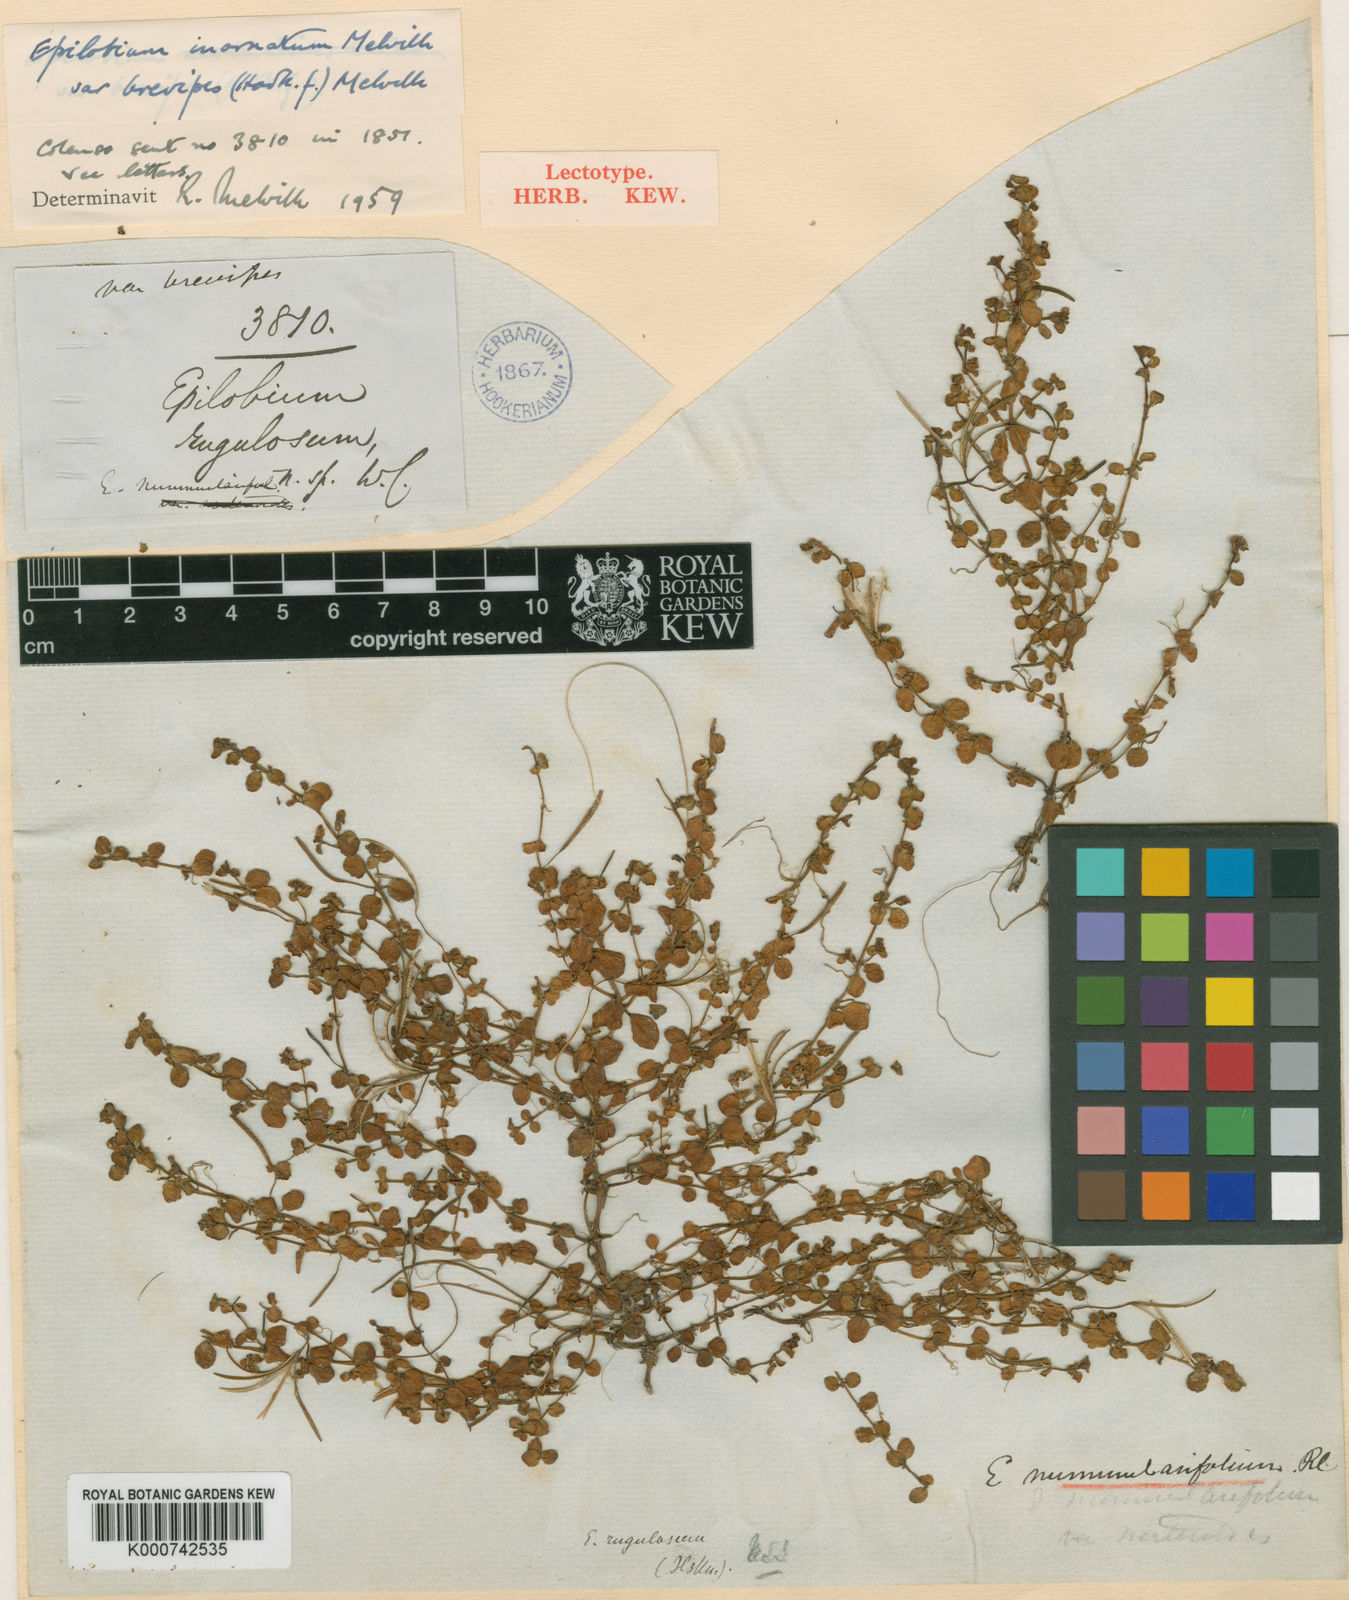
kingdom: Plantae
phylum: Tracheophyta
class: Magnoliopsida
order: Myrtales
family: Onagraceae
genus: Epilobium
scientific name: Epilobium
